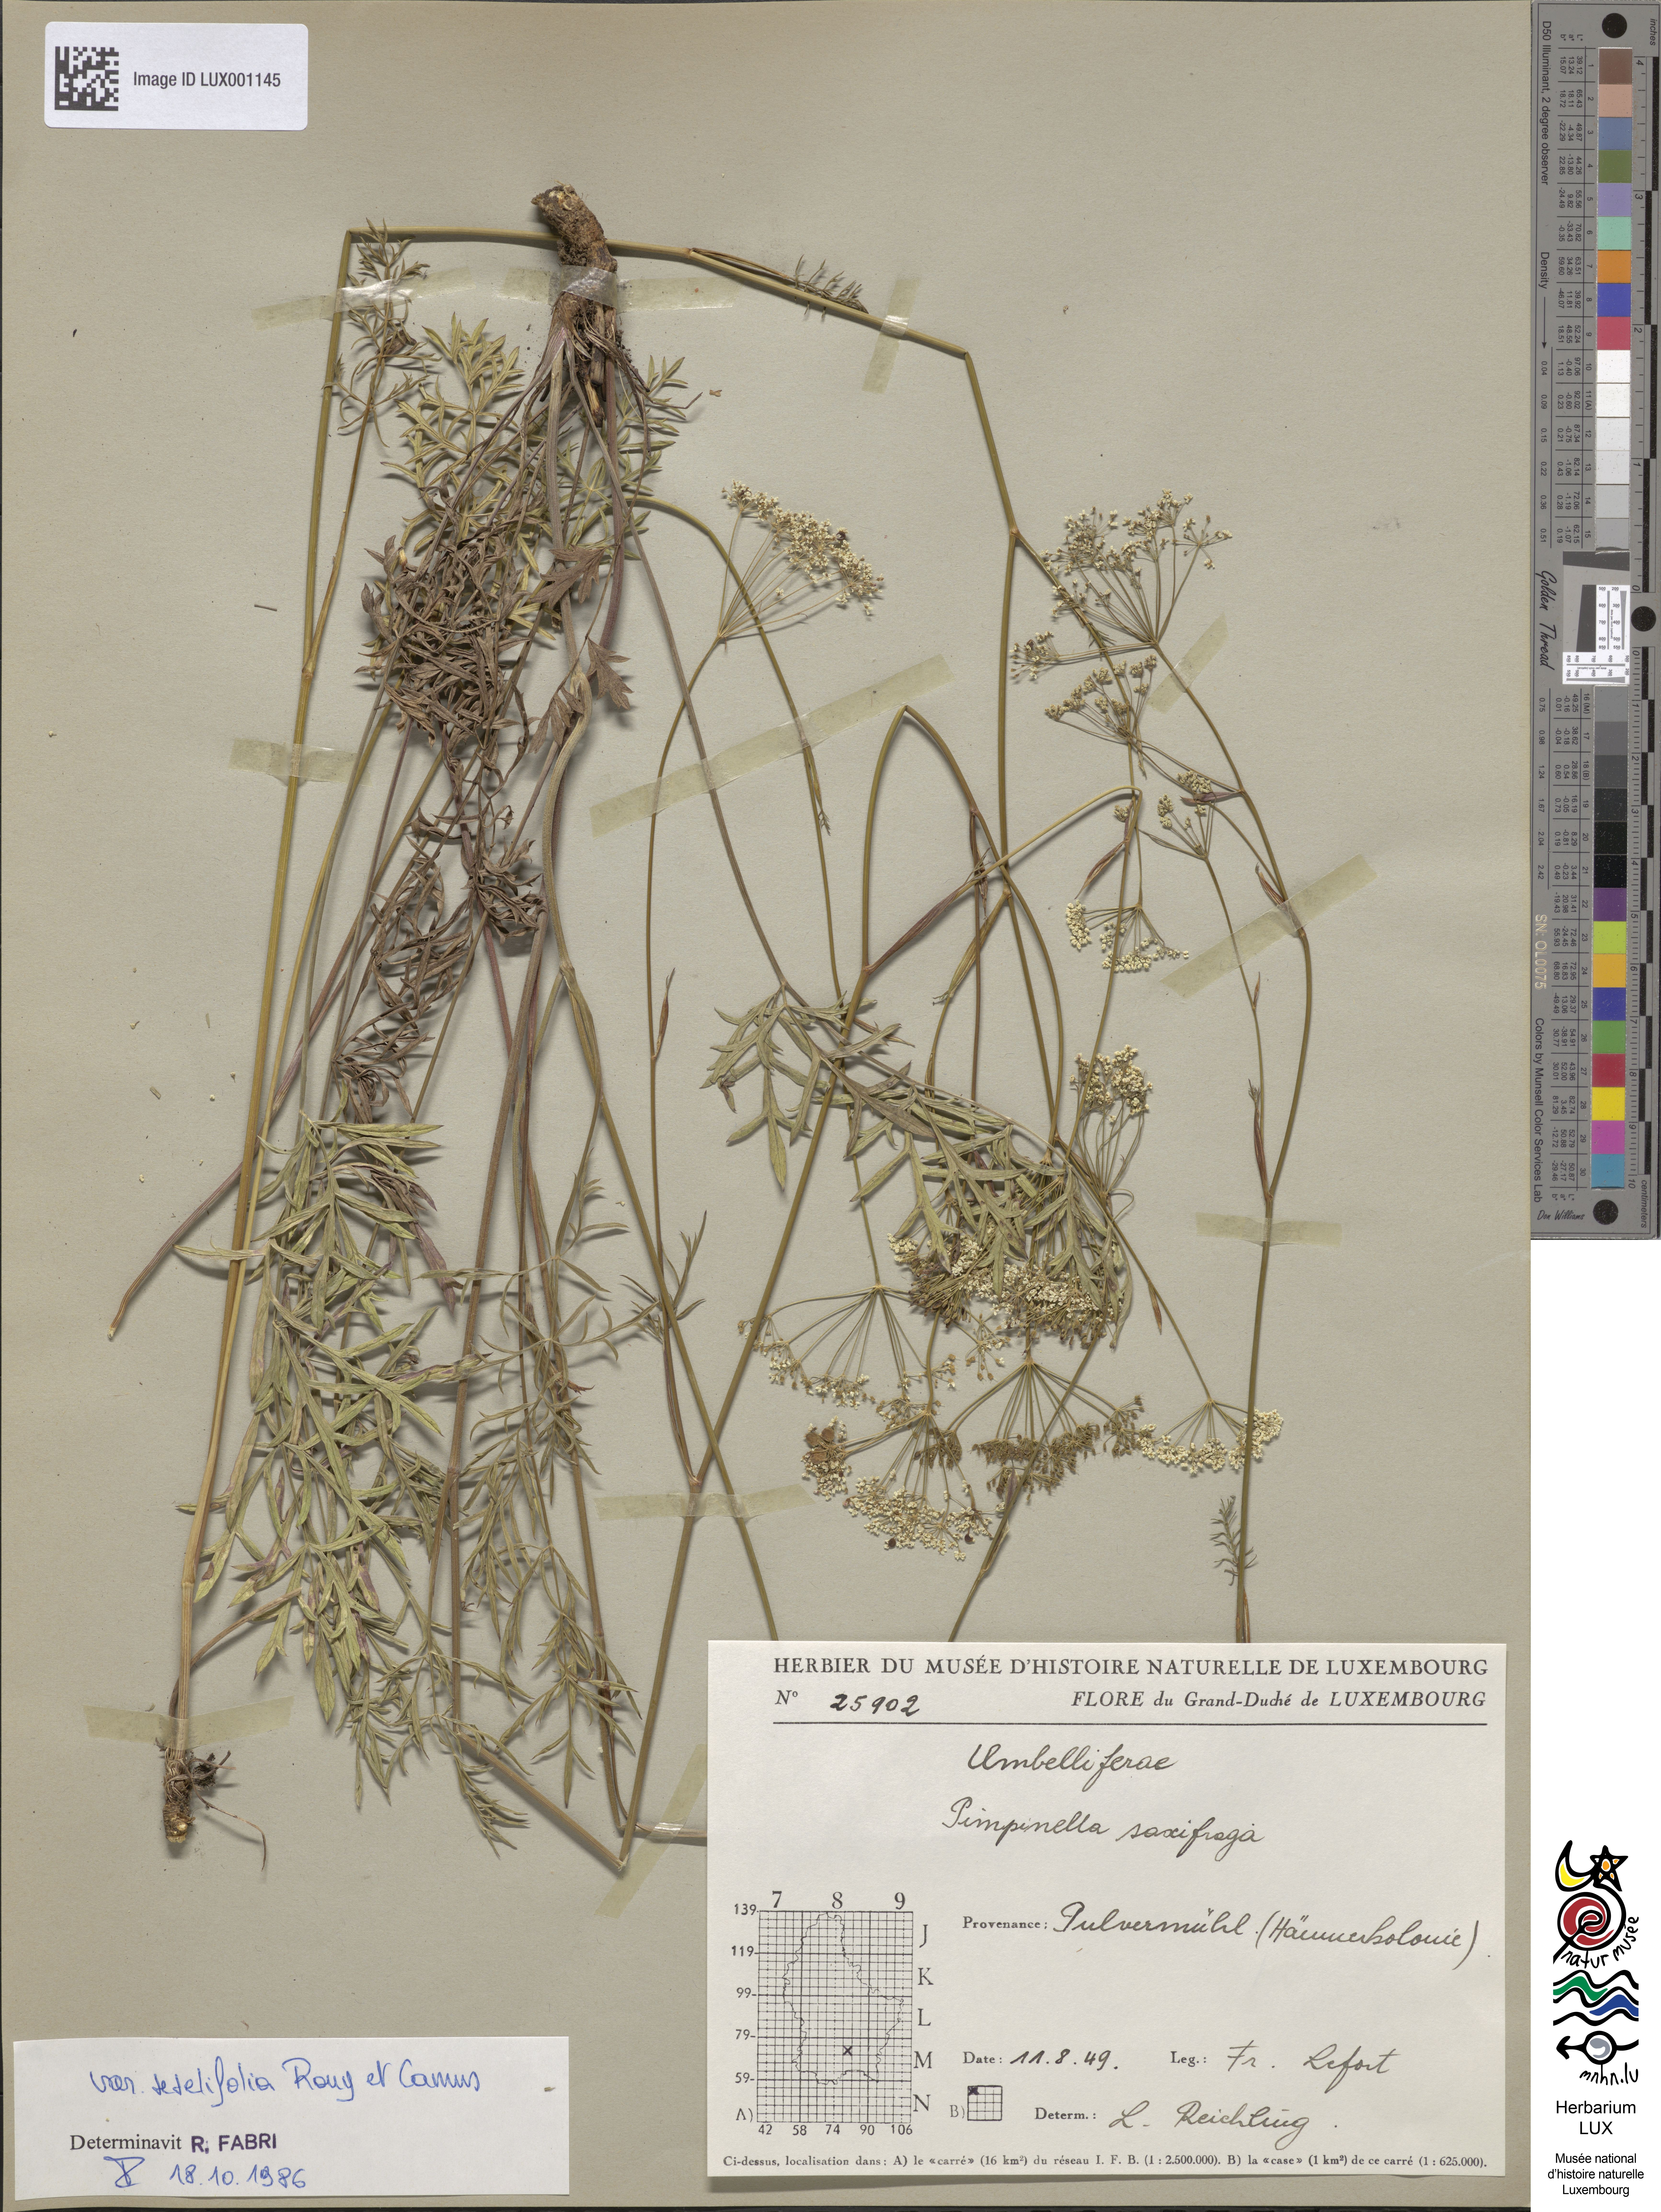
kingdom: Plantae
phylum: Tracheophyta
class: Magnoliopsida
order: Apiales
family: Apiaceae
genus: Pimpinella
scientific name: Pimpinella saxifraga
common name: Burnet-saxifrage
